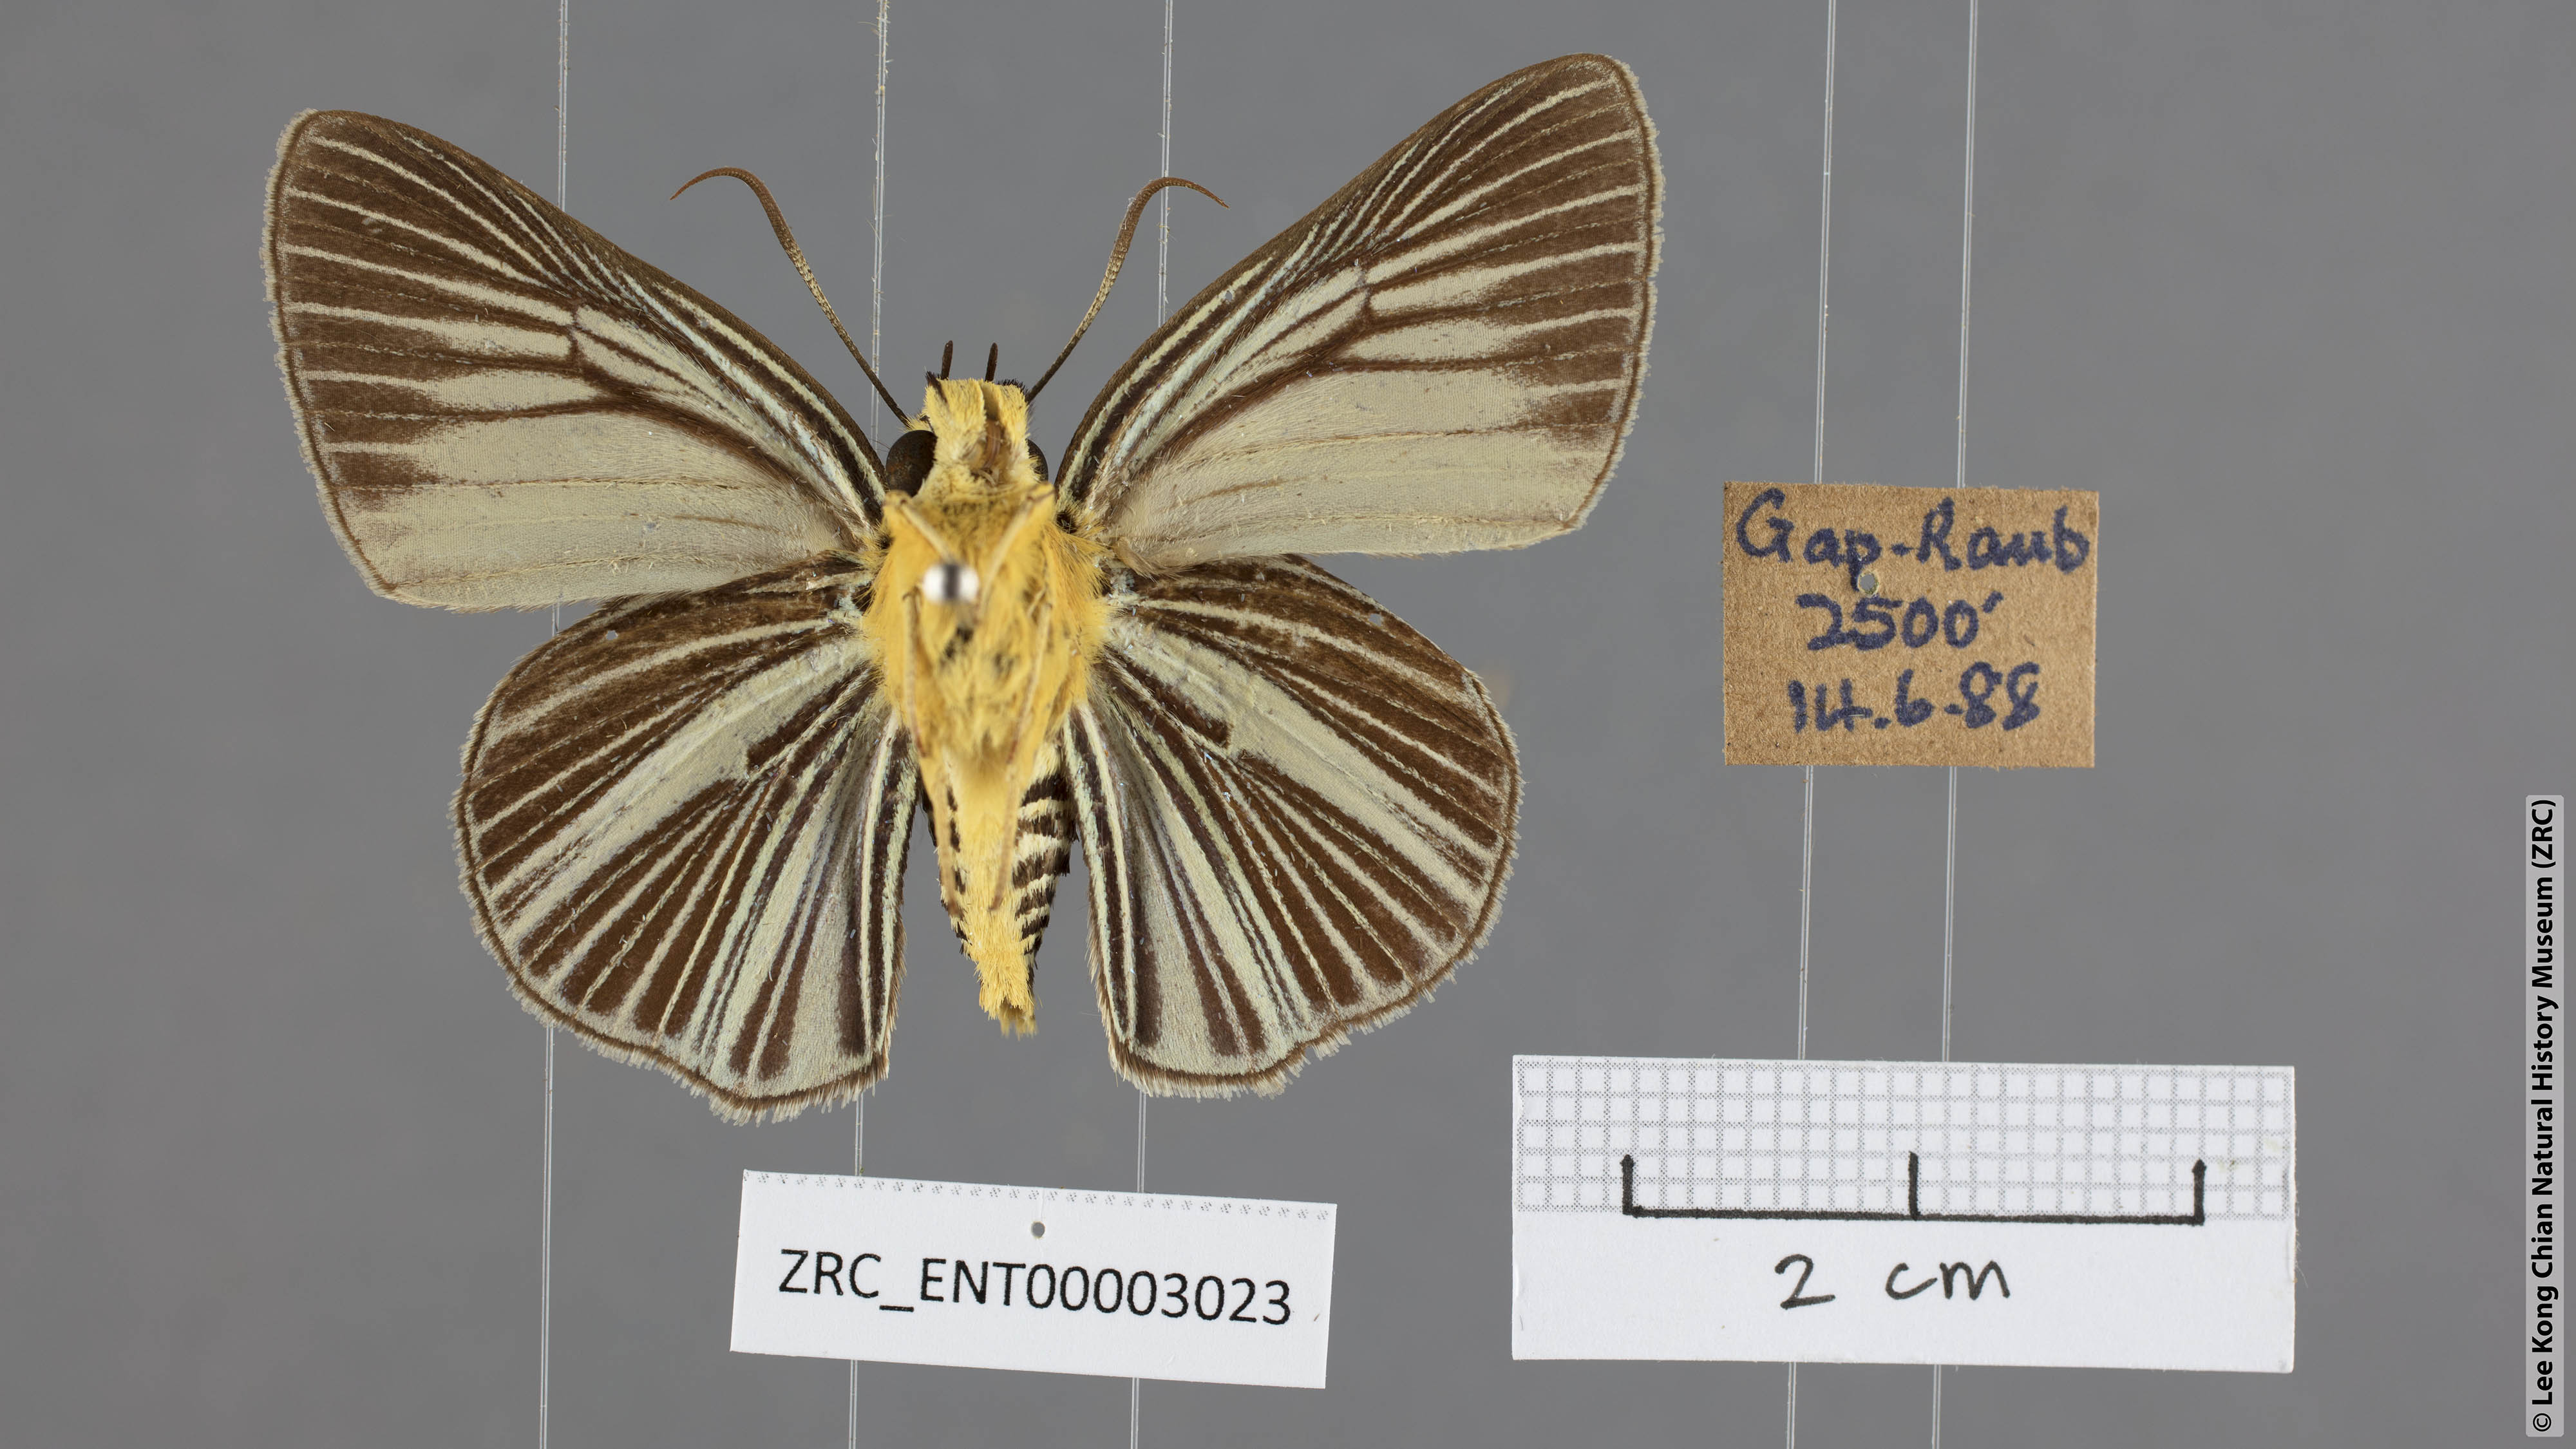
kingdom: Animalia
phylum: Arthropoda
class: Insecta
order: Lepidoptera
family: Hesperiidae
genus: Bibasis
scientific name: Bibasis gomata
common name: Pale green awlet
